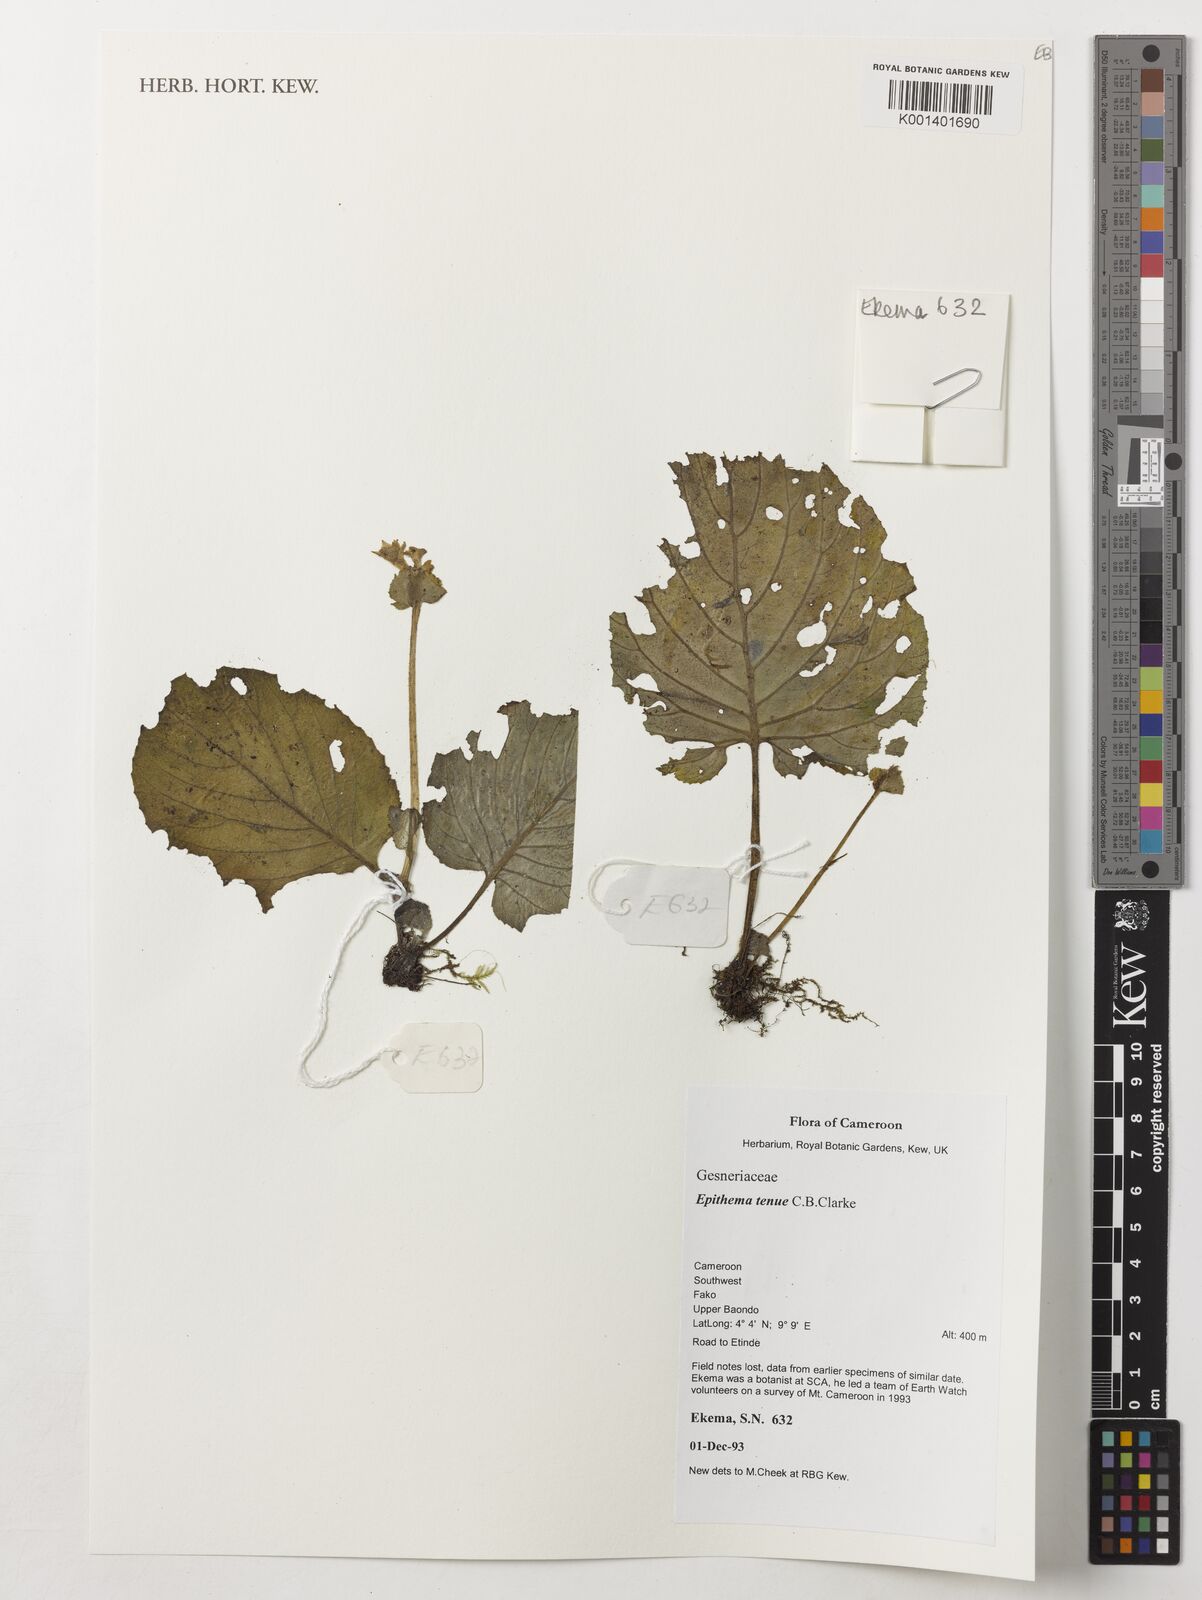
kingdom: Plantae
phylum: Tracheophyta
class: Magnoliopsida
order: Lamiales
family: Gesneriaceae
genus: Epithema
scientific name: Epithema tenue
